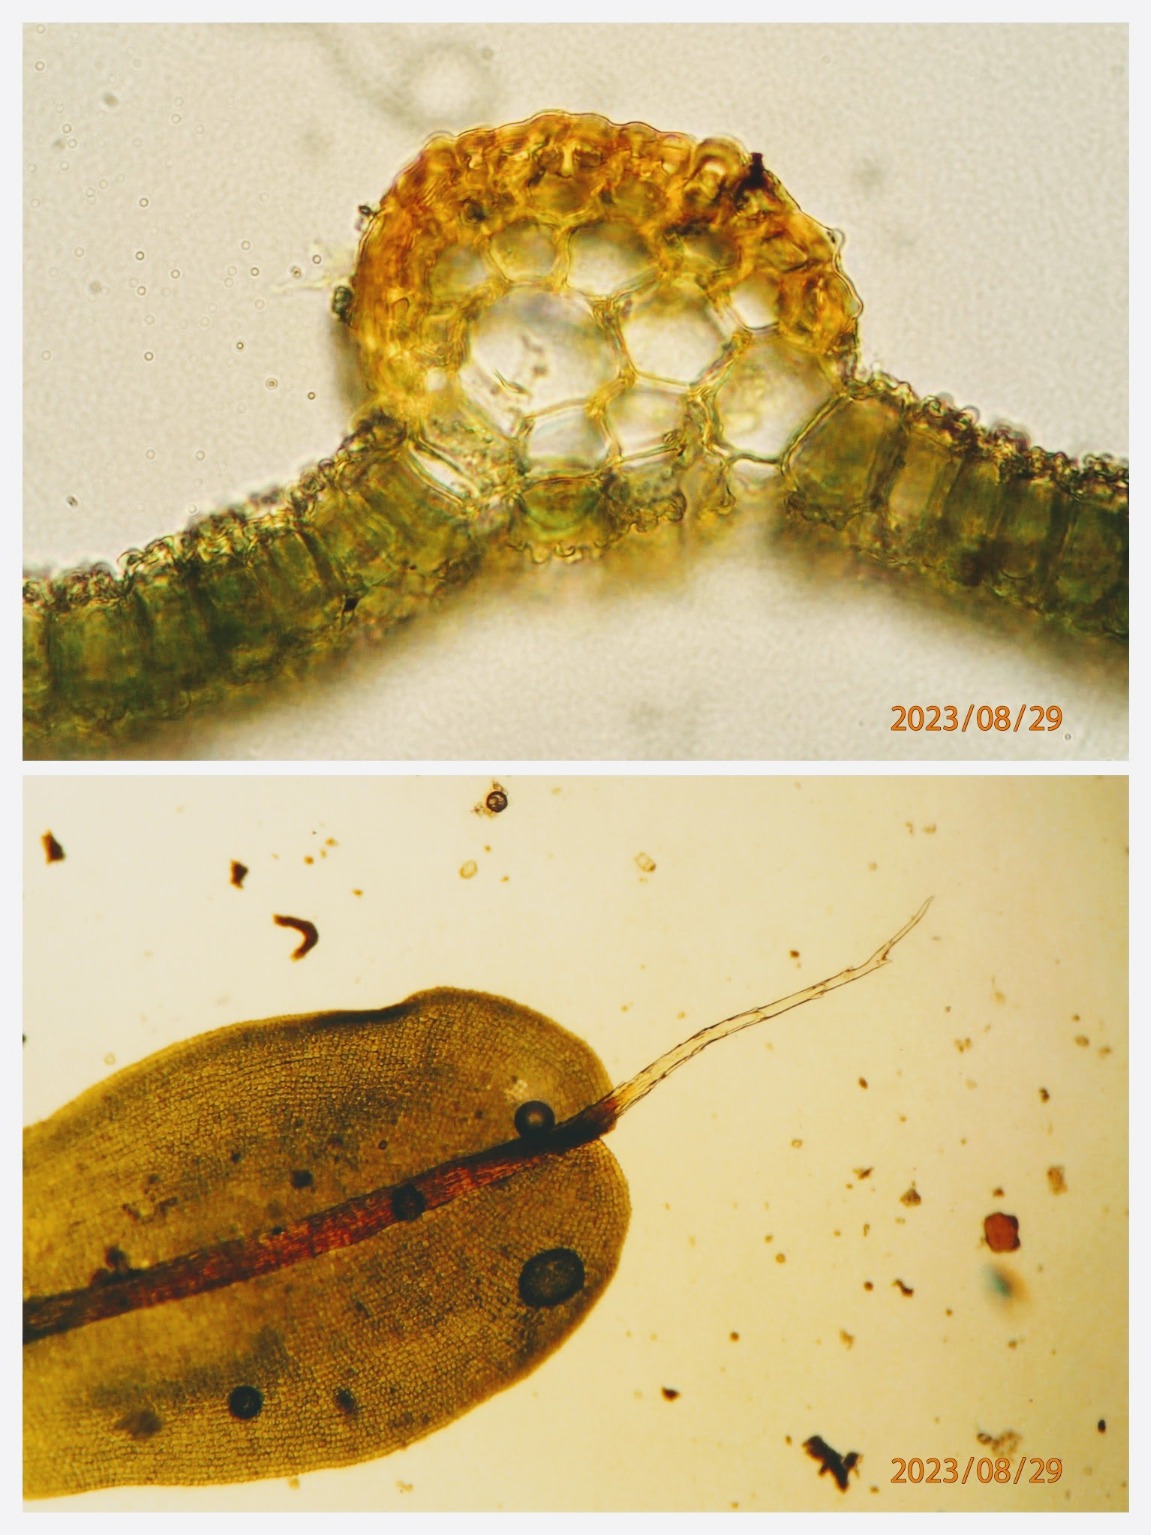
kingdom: Plantae
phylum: Bryophyta
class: Bryopsida
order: Pottiales
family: Pottiaceae
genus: Syntrichia
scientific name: Syntrichia virescens
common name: Grøn hårstjerne
